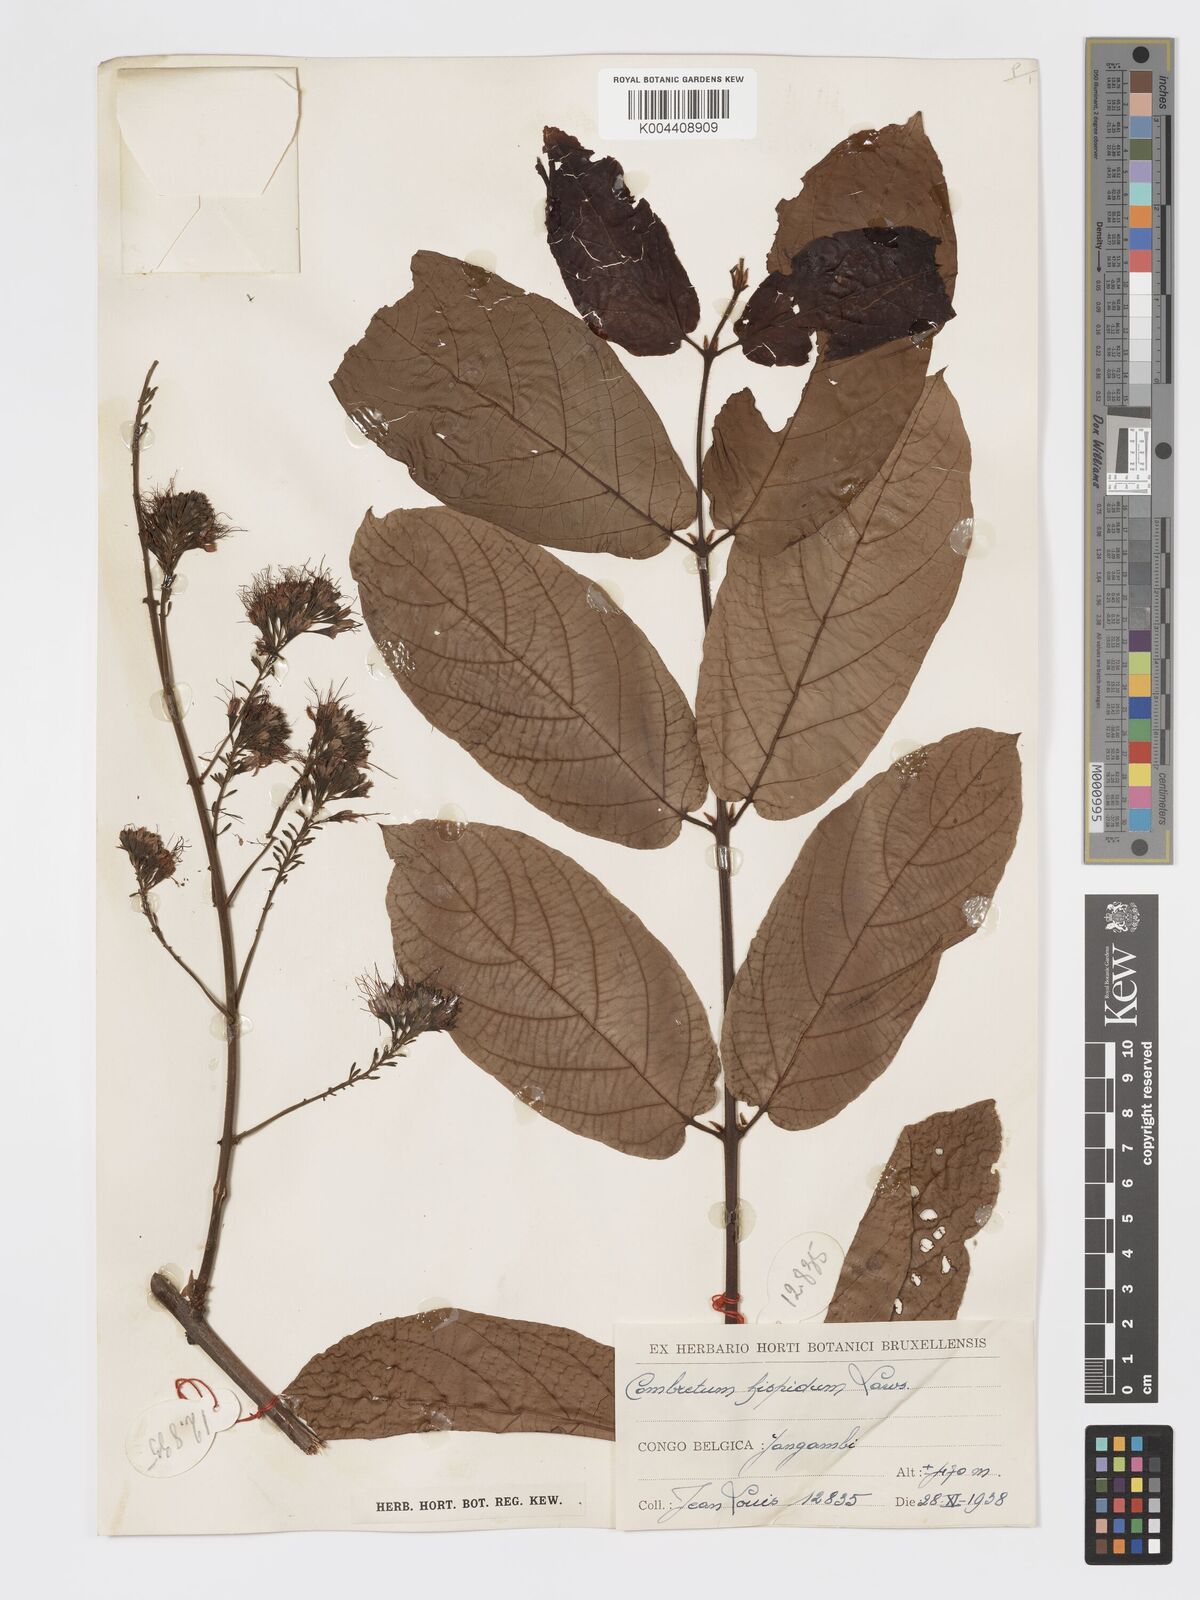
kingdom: Plantae
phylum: Tracheophyta
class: Magnoliopsida
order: Myrtales
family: Combretaceae
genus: Combretum
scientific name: Combretum comosum
